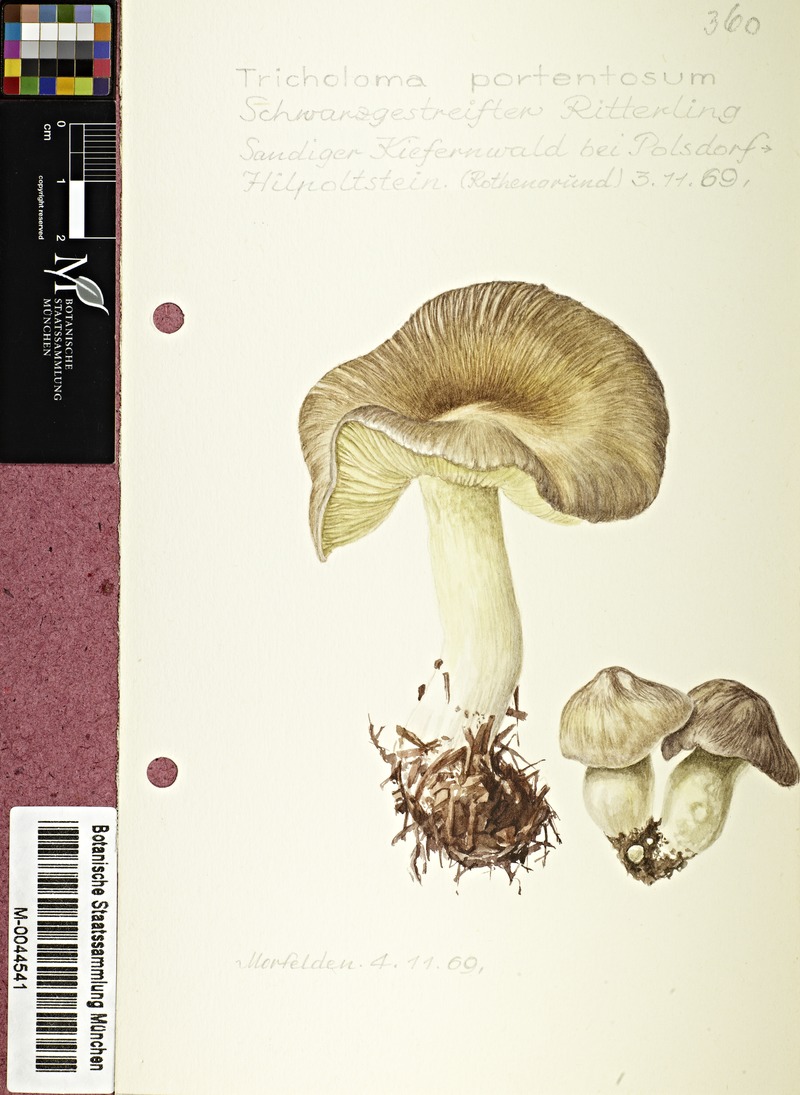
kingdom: Fungi
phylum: Basidiomycota
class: Agaricomycetes
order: Agaricales
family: Tricholomataceae
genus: Tricholoma
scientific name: Tricholoma portentosum
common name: Coalman
